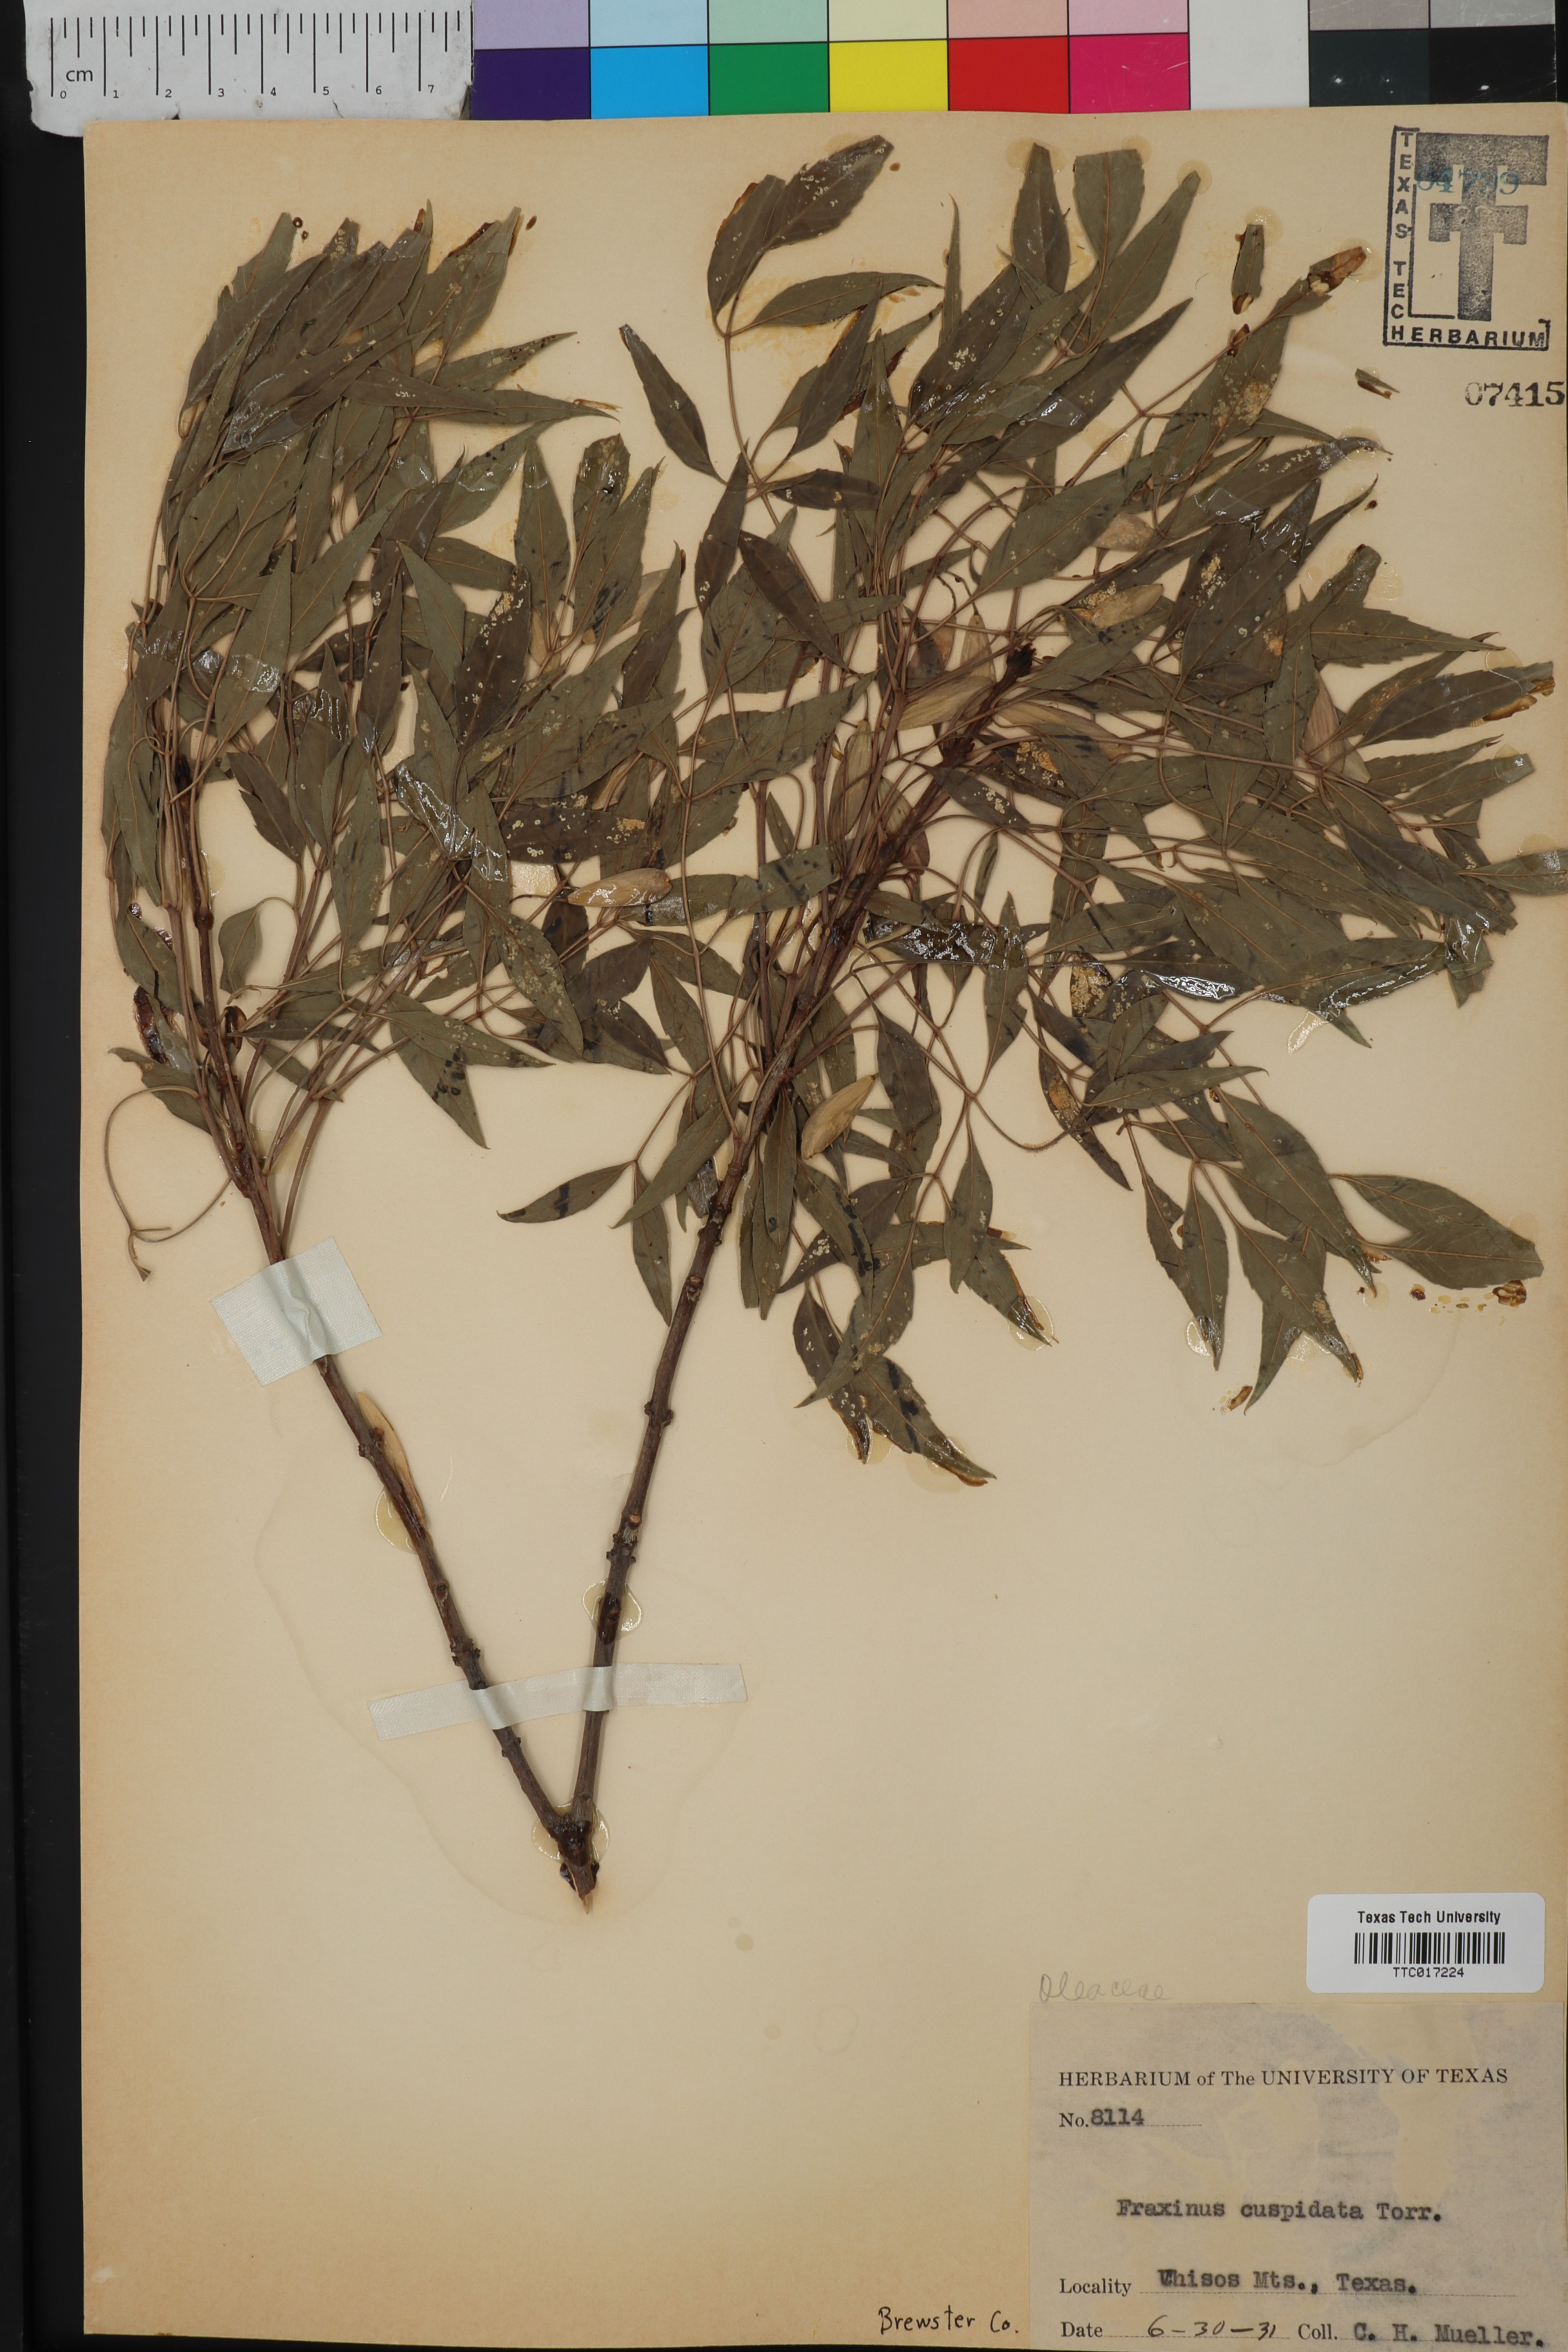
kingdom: Plantae
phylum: Tracheophyta
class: Magnoliopsida
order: Lamiales
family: Oleaceae
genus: Fraxinus
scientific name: Fraxinus cuspidata
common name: Fragrant ash
